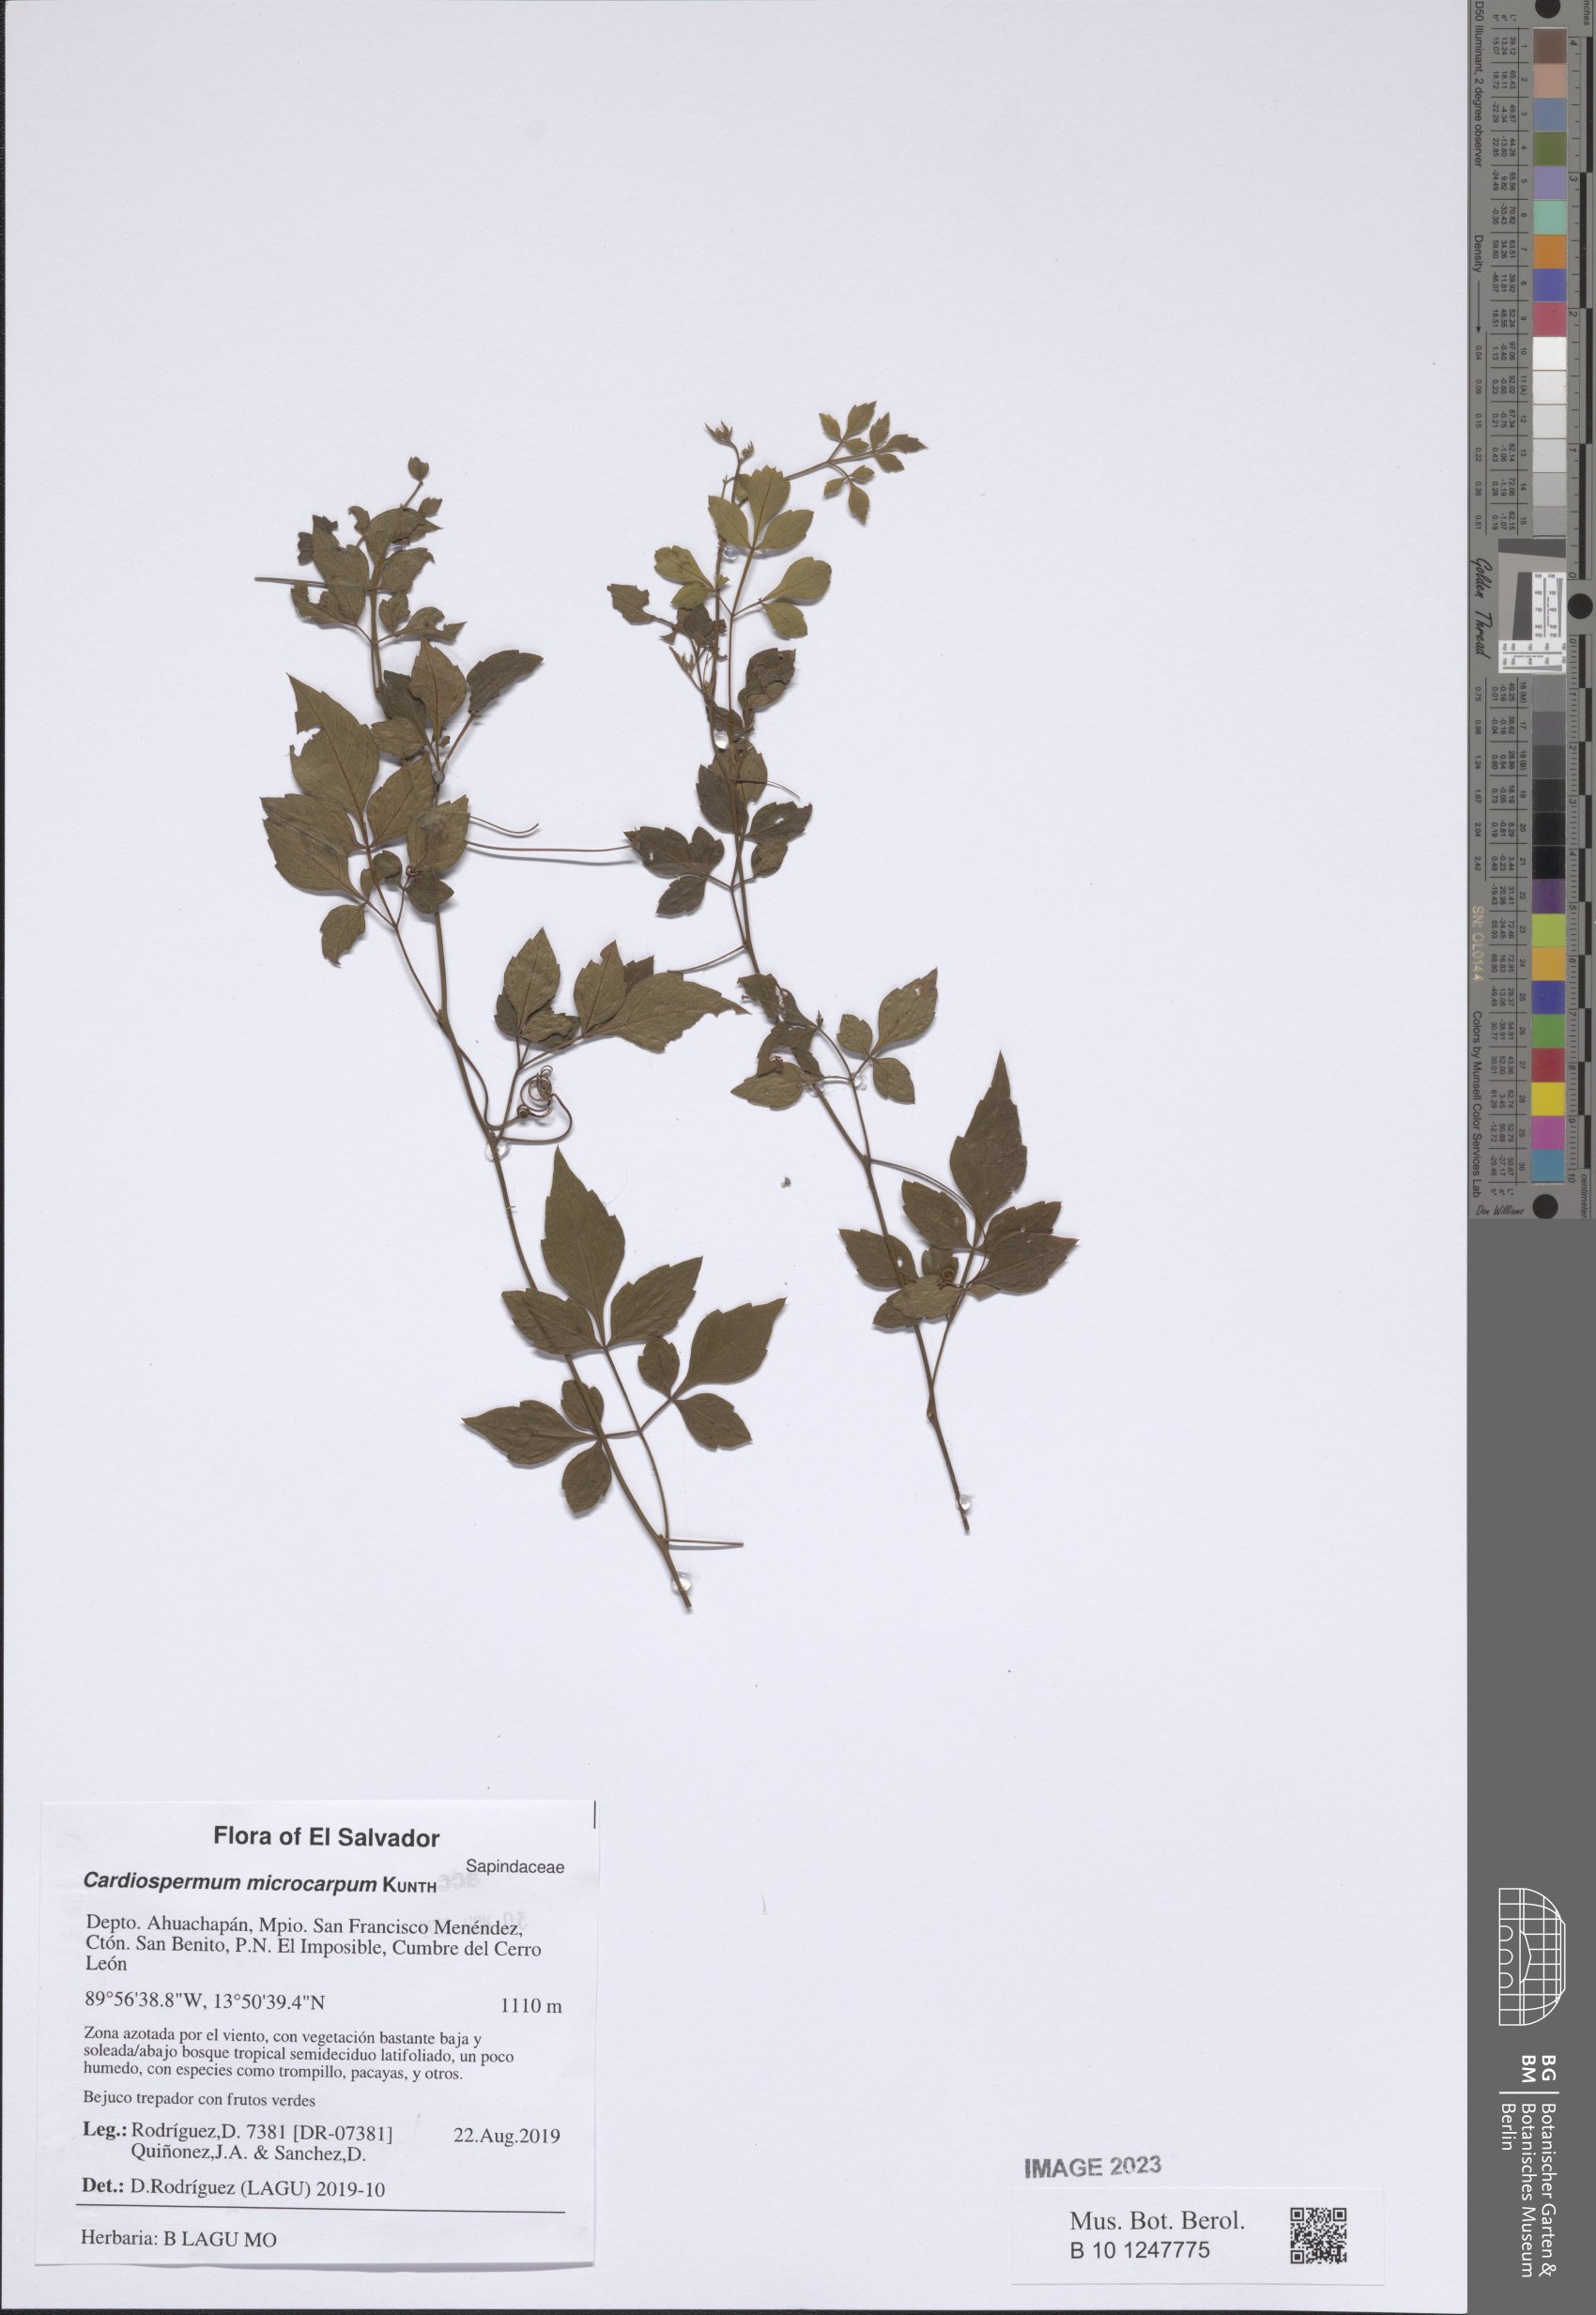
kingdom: Plantae
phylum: Tracheophyta
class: Magnoliopsida
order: Sapindales
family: Sapindaceae
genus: Cardiospermum
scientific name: Cardiospermum microcarpum
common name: Heart seed
